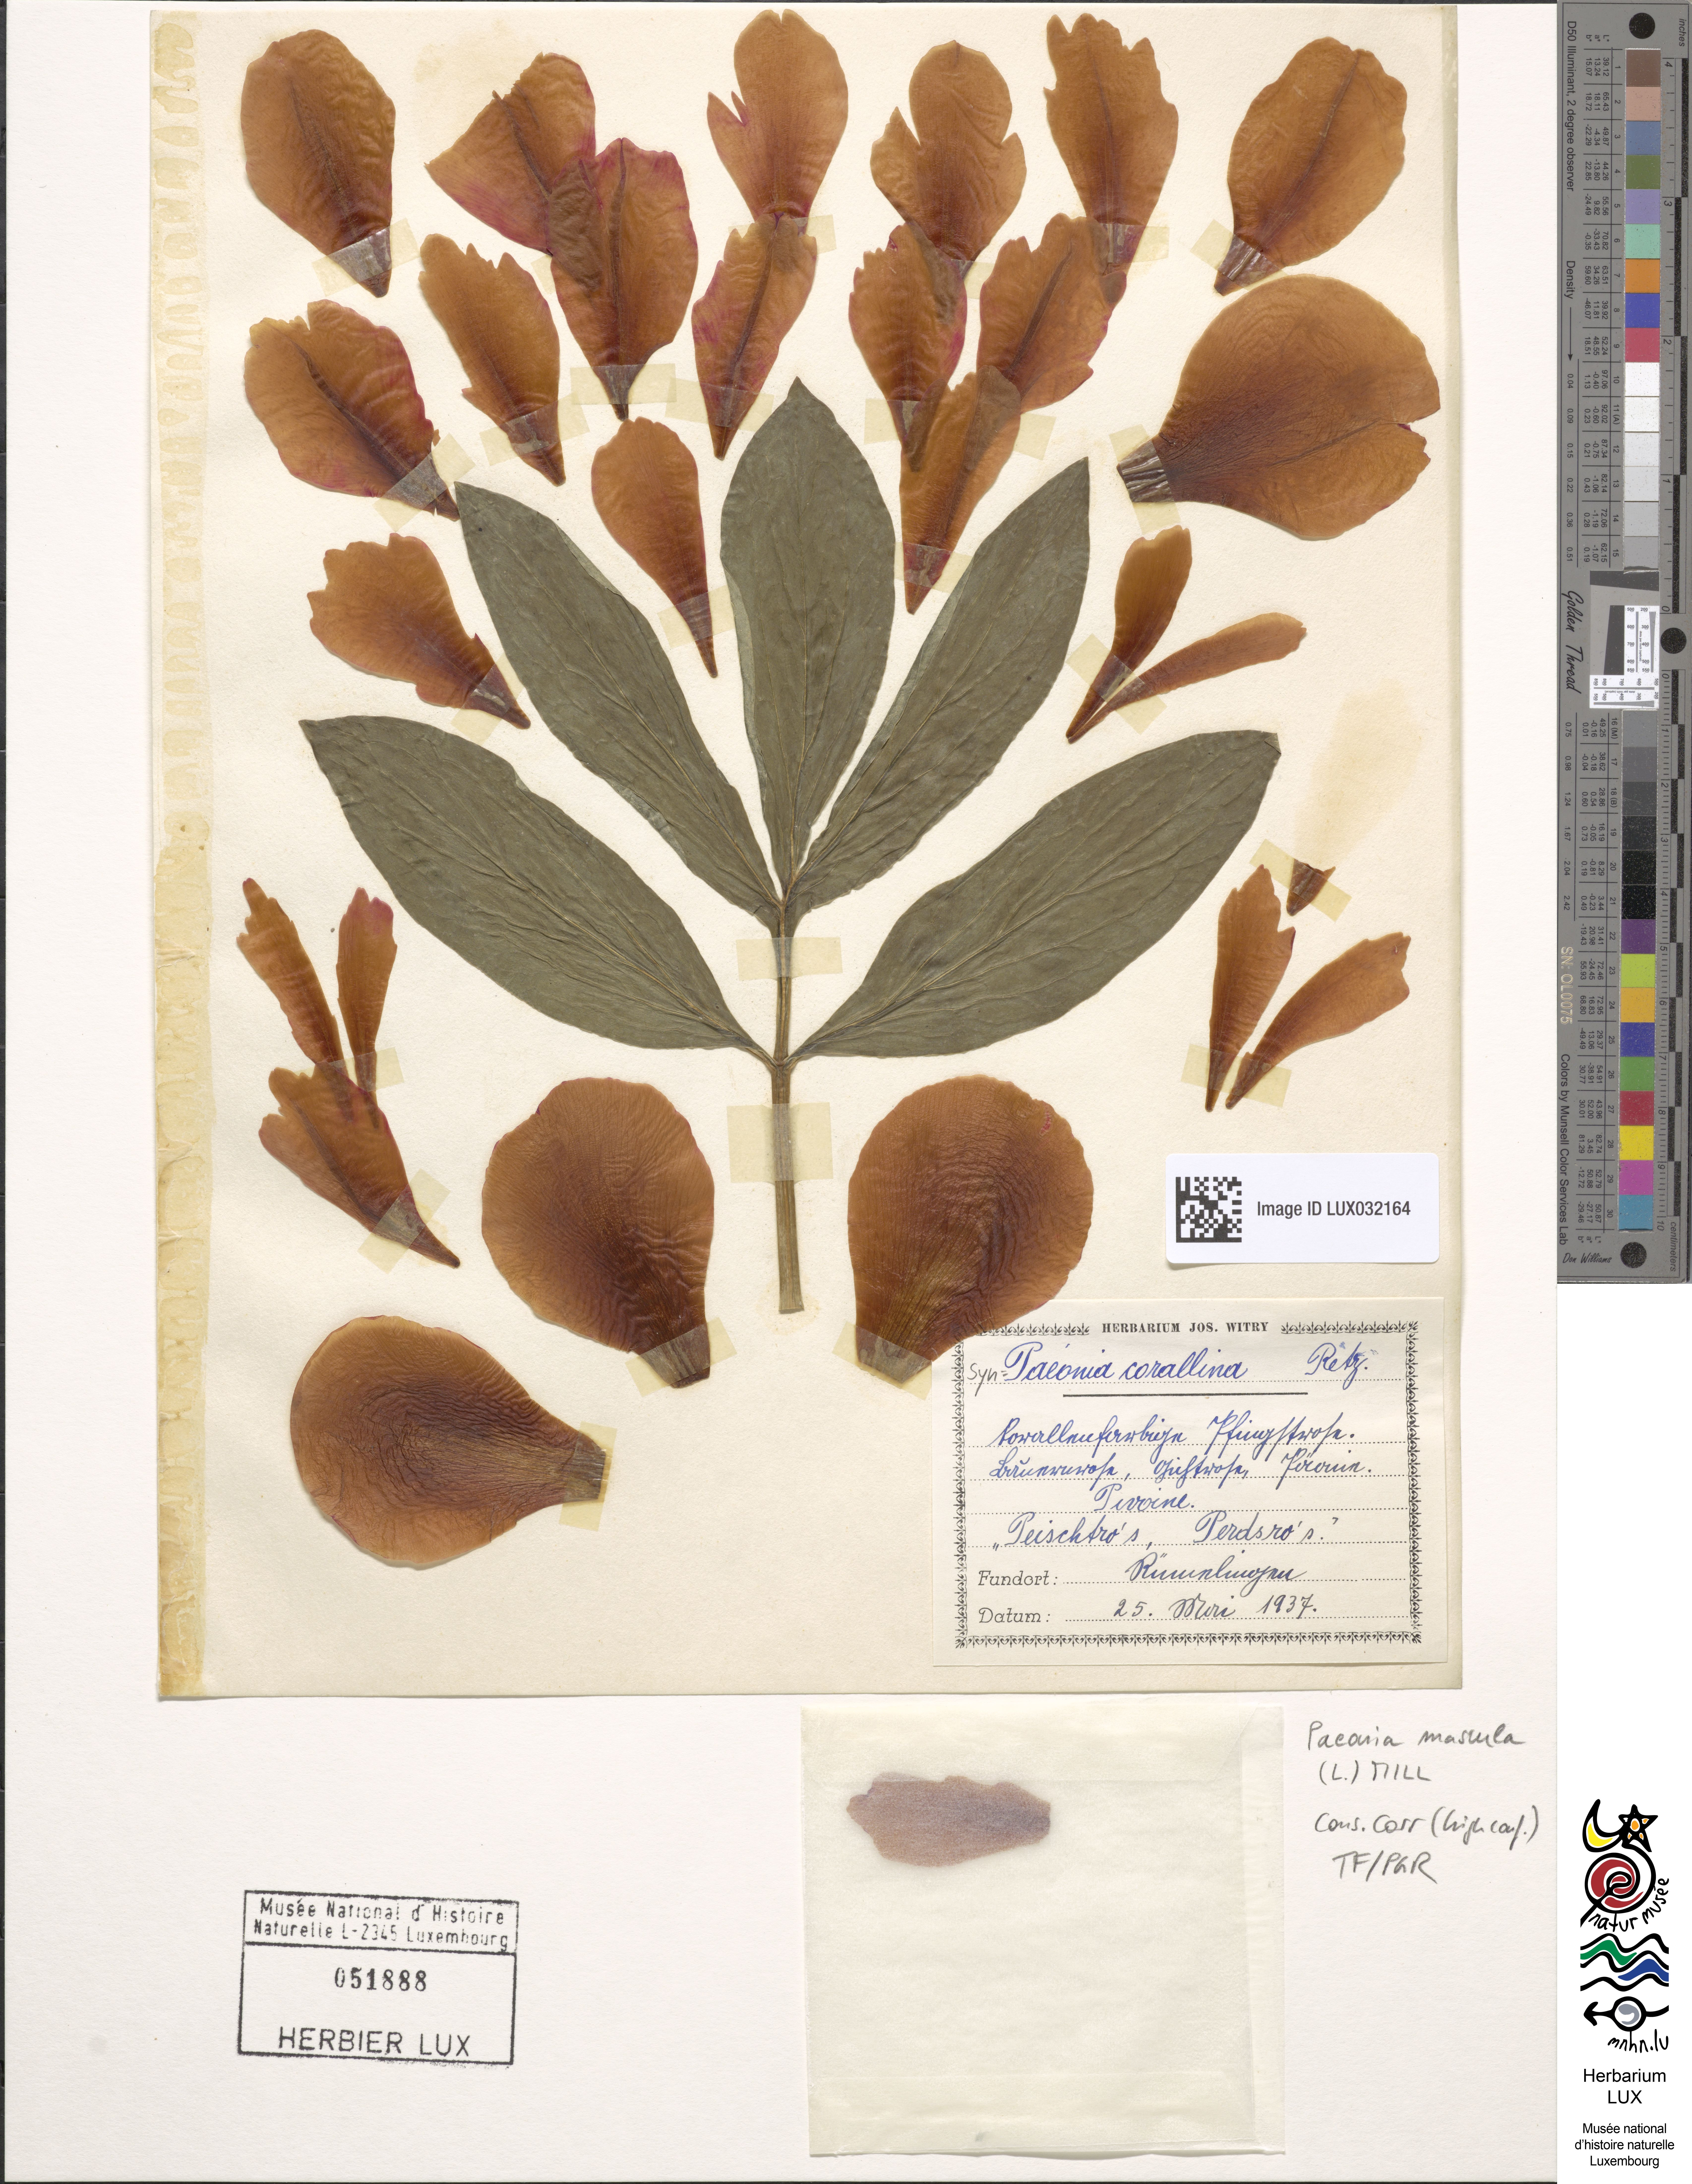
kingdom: Plantae
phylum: Tracheophyta
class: Magnoliopsida
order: Saxifragales
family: Paeoniaceae
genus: Paeonia
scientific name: Paeonia mascula
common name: Peony
